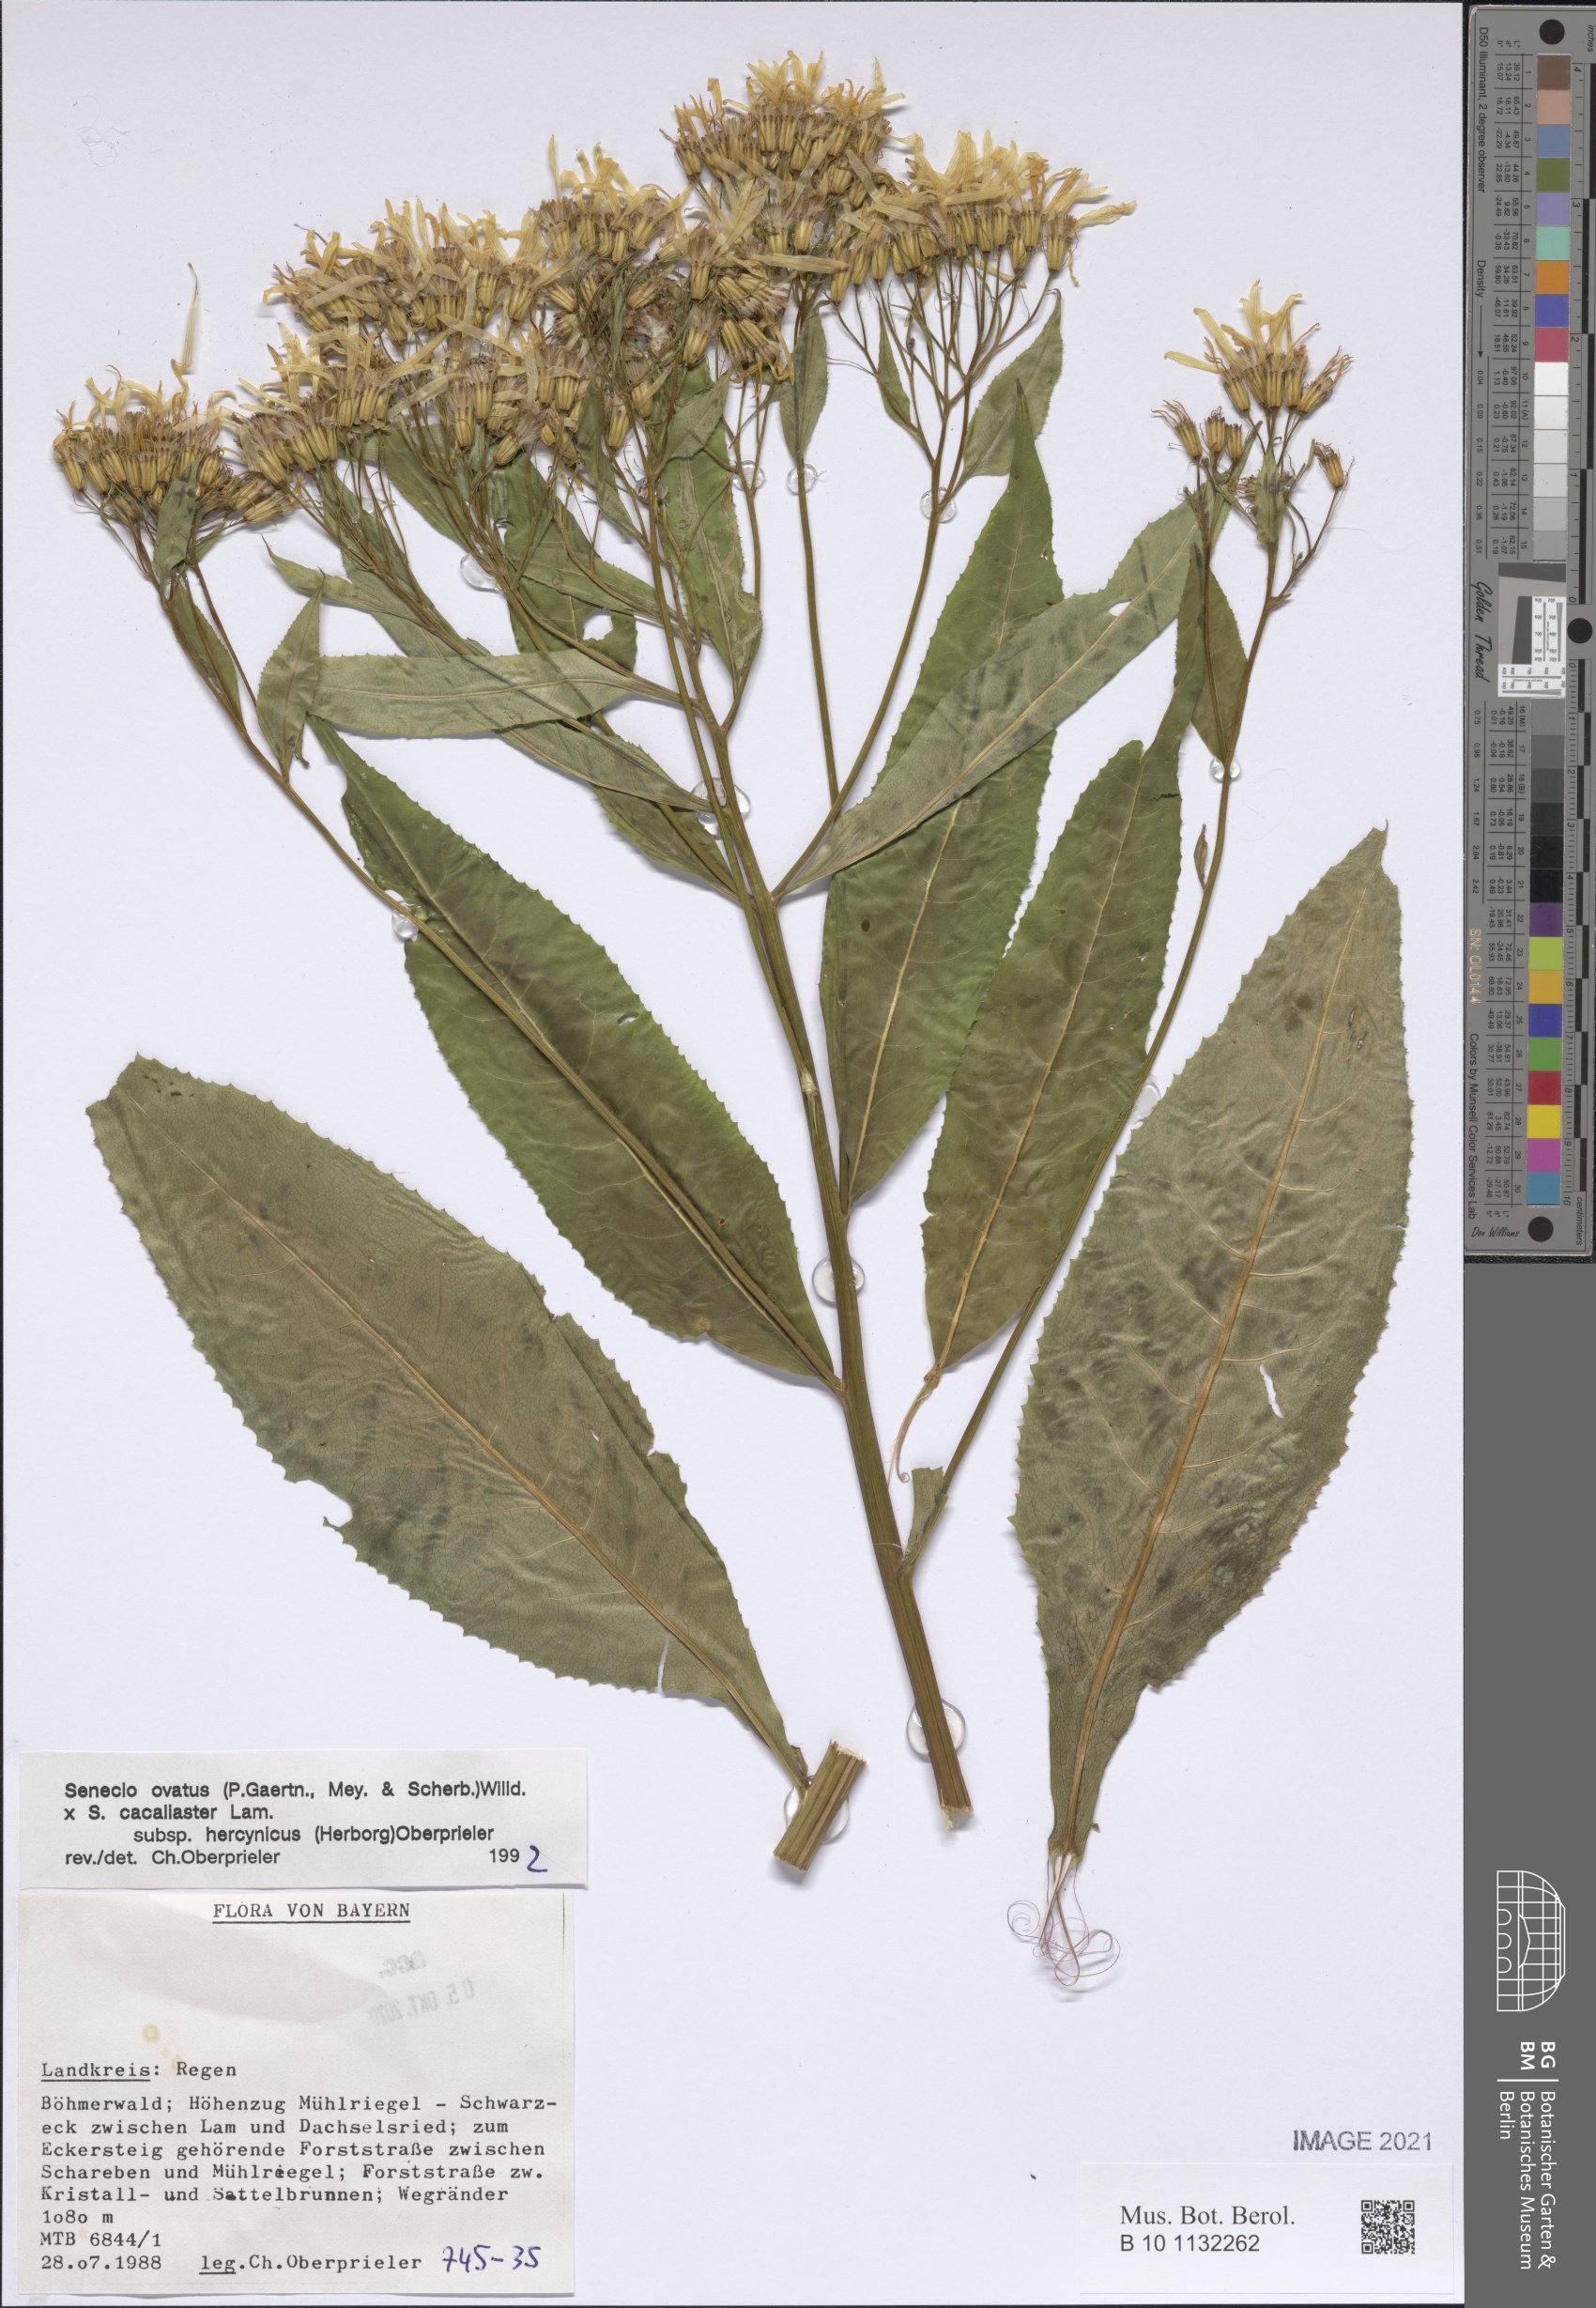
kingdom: Plantae
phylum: Tracheophyta
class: Magnoliopsida
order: Asterales
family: Asteraceae
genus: Senecio
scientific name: Senecio ovatus
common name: Wood ragwort
